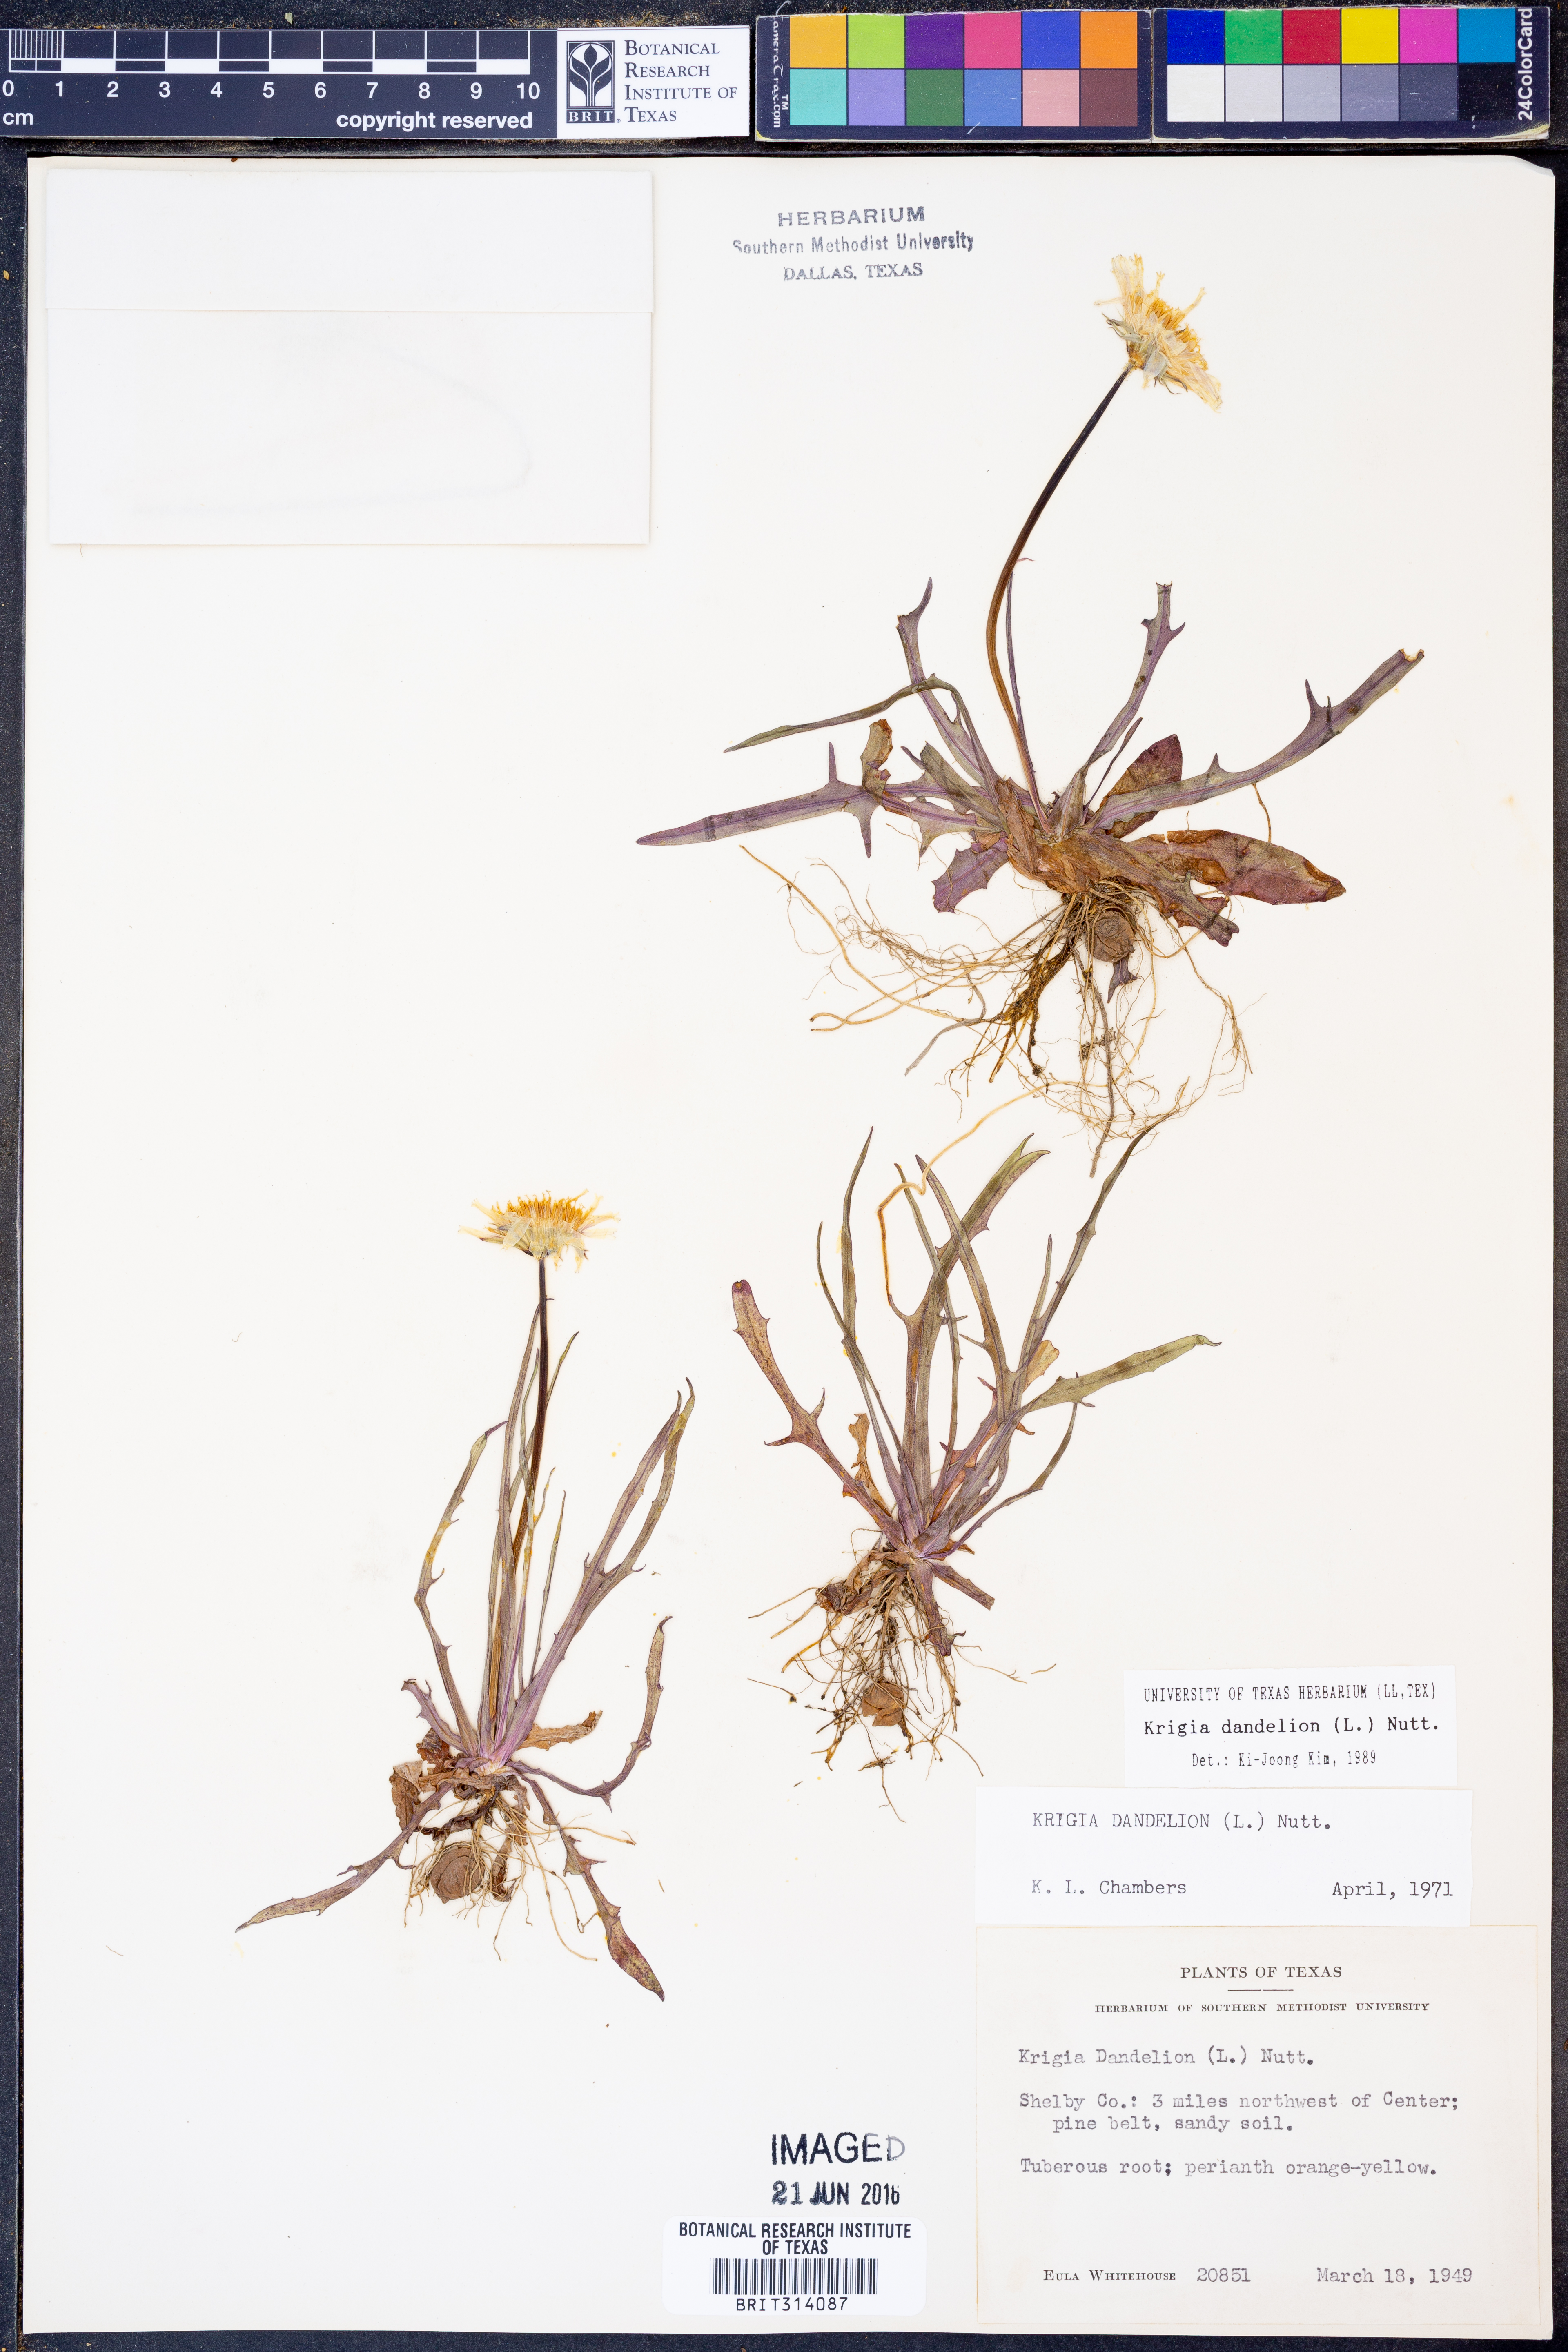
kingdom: Plantae
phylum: Tracheophyta
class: Magnoliopsida
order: Asterales
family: Asteraceae
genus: Krigia
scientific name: Krigia dandelion
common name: Colonial dwarf-dandelion
